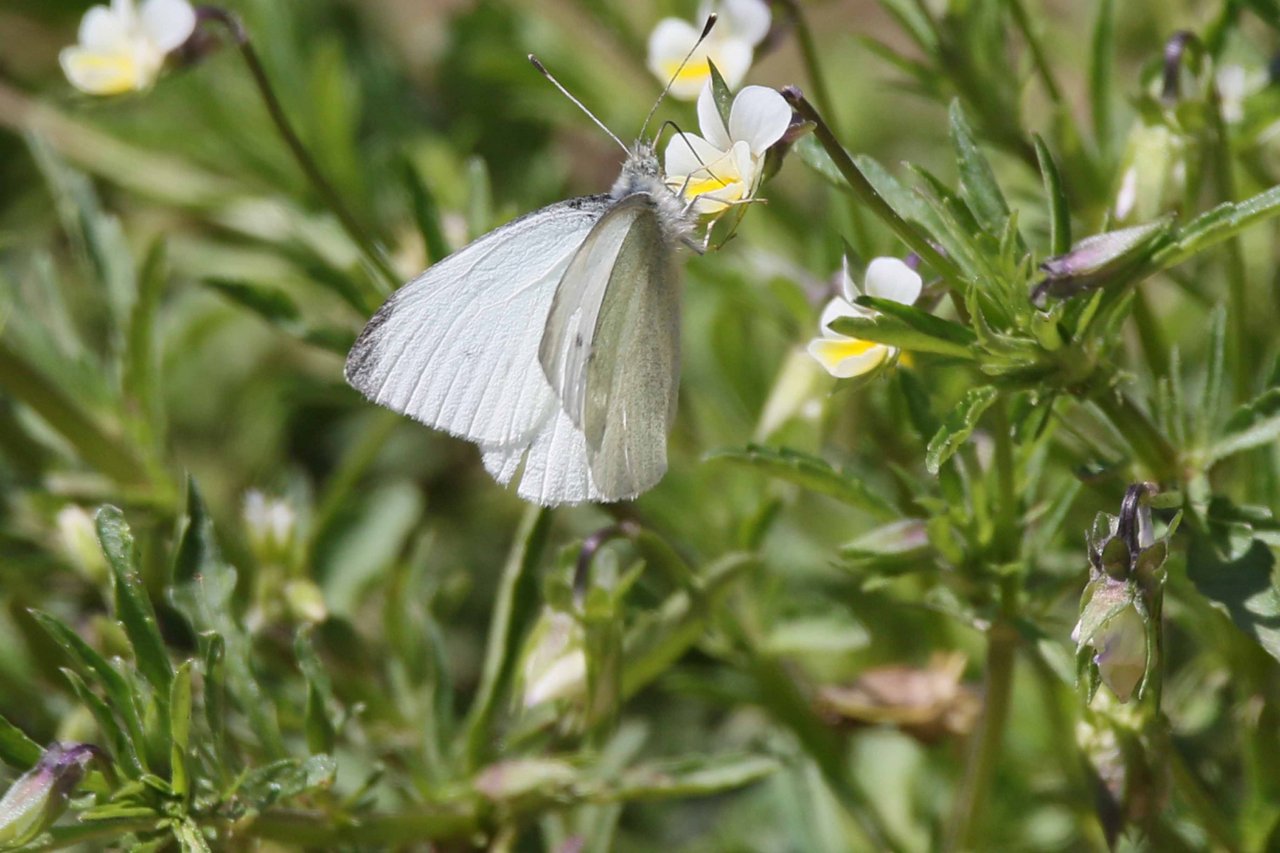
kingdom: Animalia
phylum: Arthropoda
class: Insecta
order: Lepidoptera
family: Pieridae
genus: Pieris
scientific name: Pieris rapae
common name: Cabbage White
